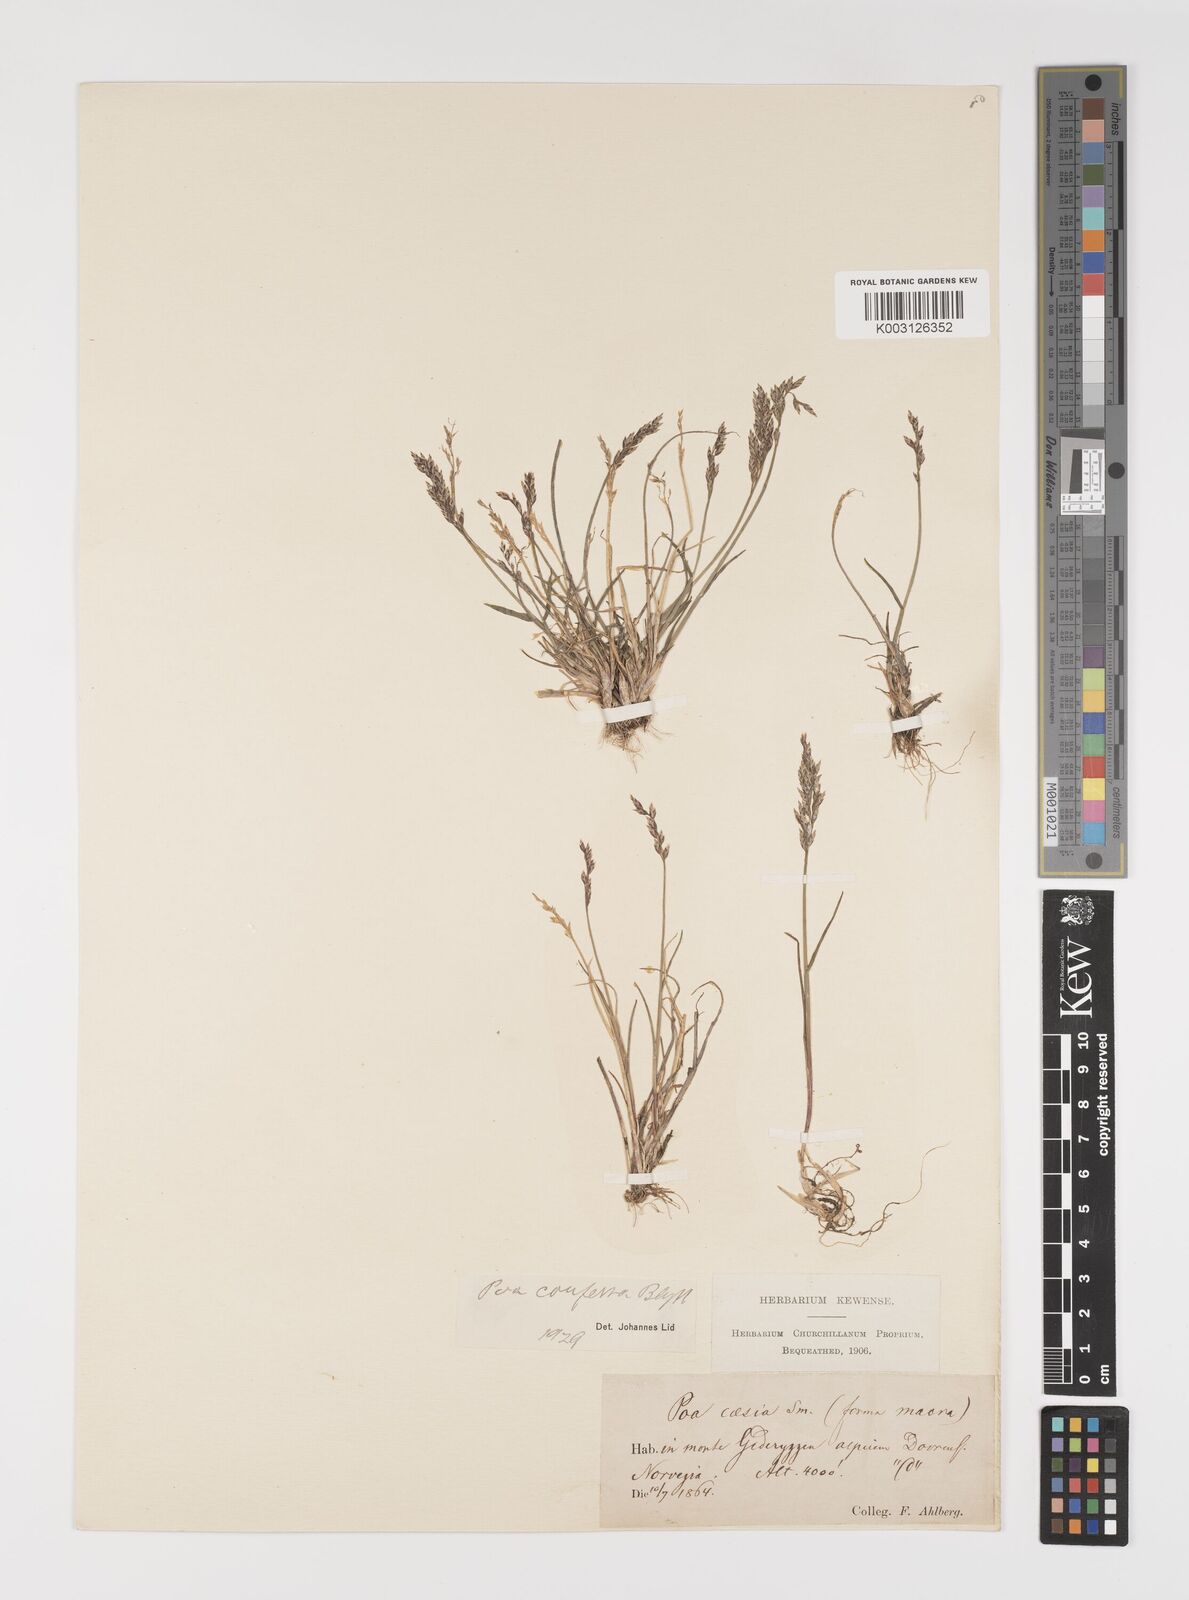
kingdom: Plantae
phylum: Tracheophyta
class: Liliopsida
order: Poales
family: Poaceae
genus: Poa
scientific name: Poa glauca
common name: Glaucous bluegrass
